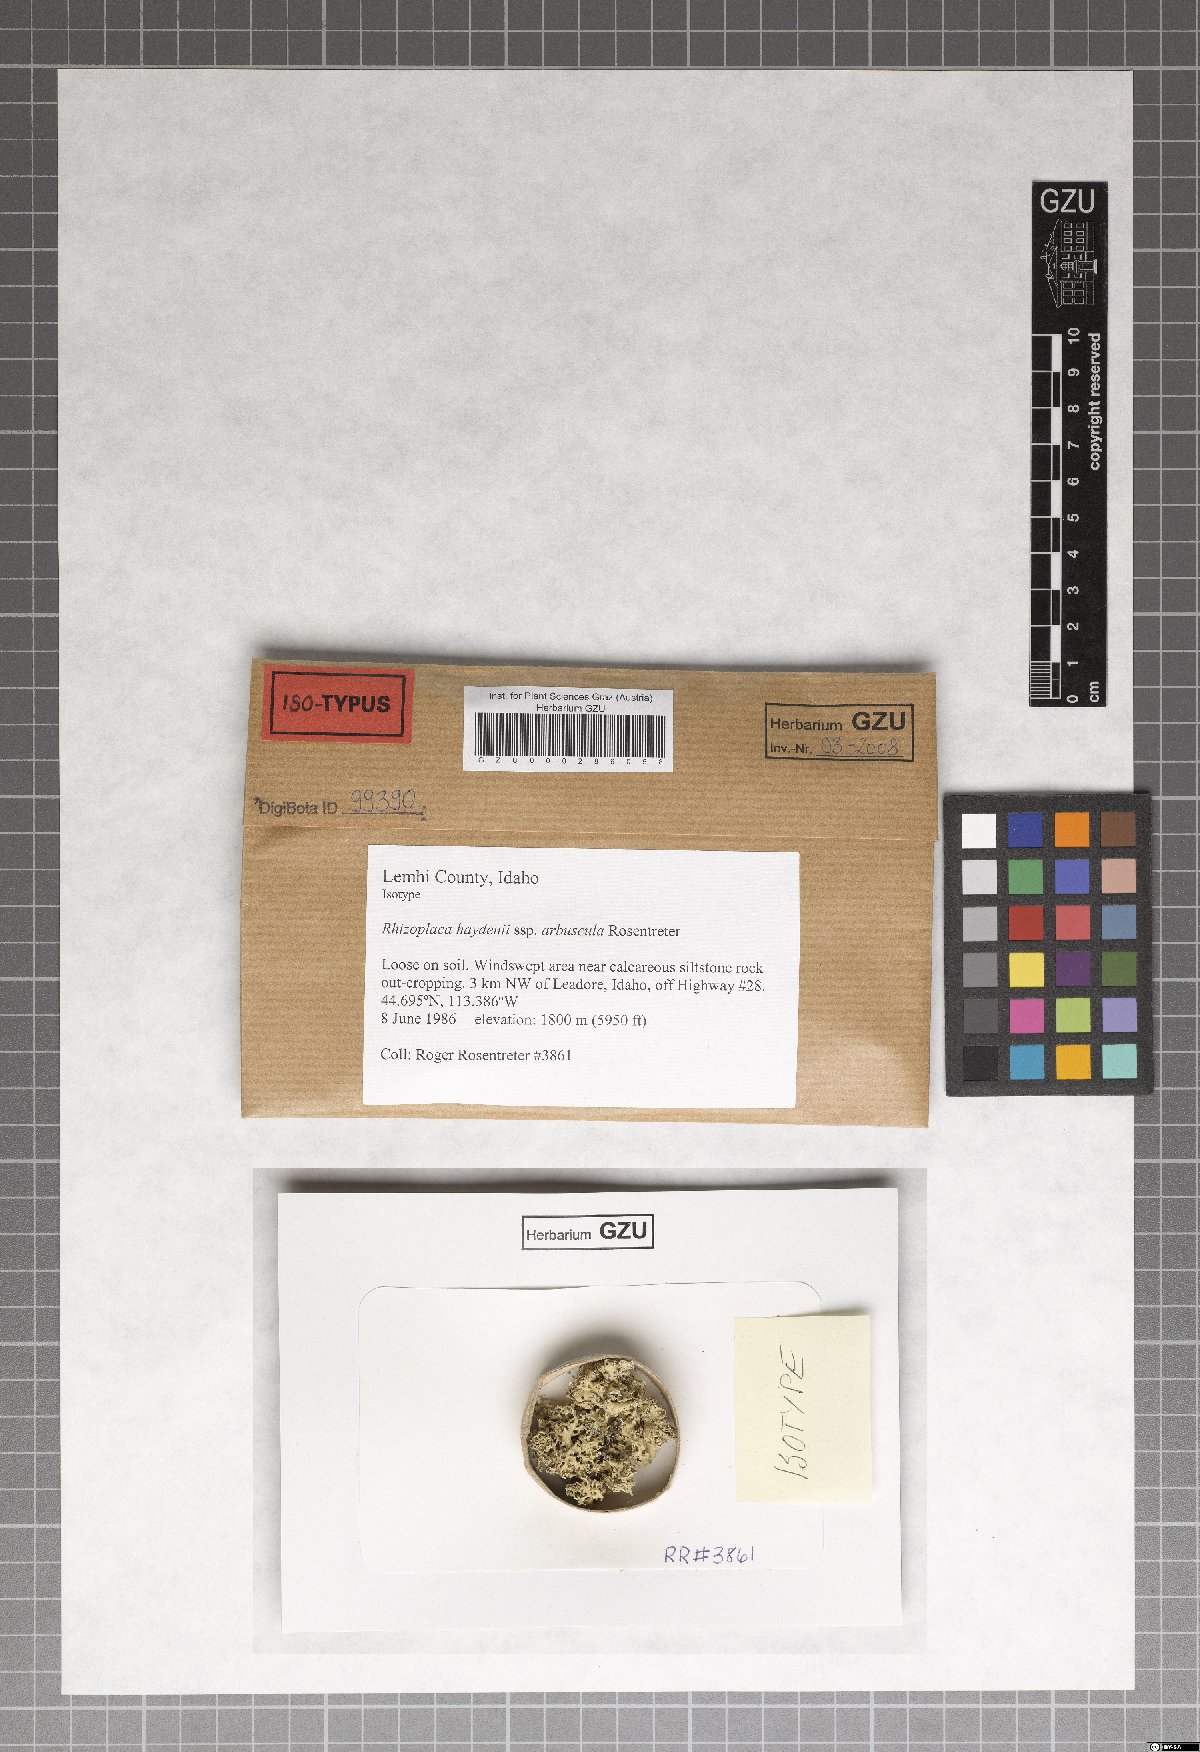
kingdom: Fungi
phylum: Ascomycota
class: Lecanoromycetes
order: Lecanorales
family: Lecanoraceae
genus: Rhizoplaca
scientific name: Rhizoplaca arbuscula
